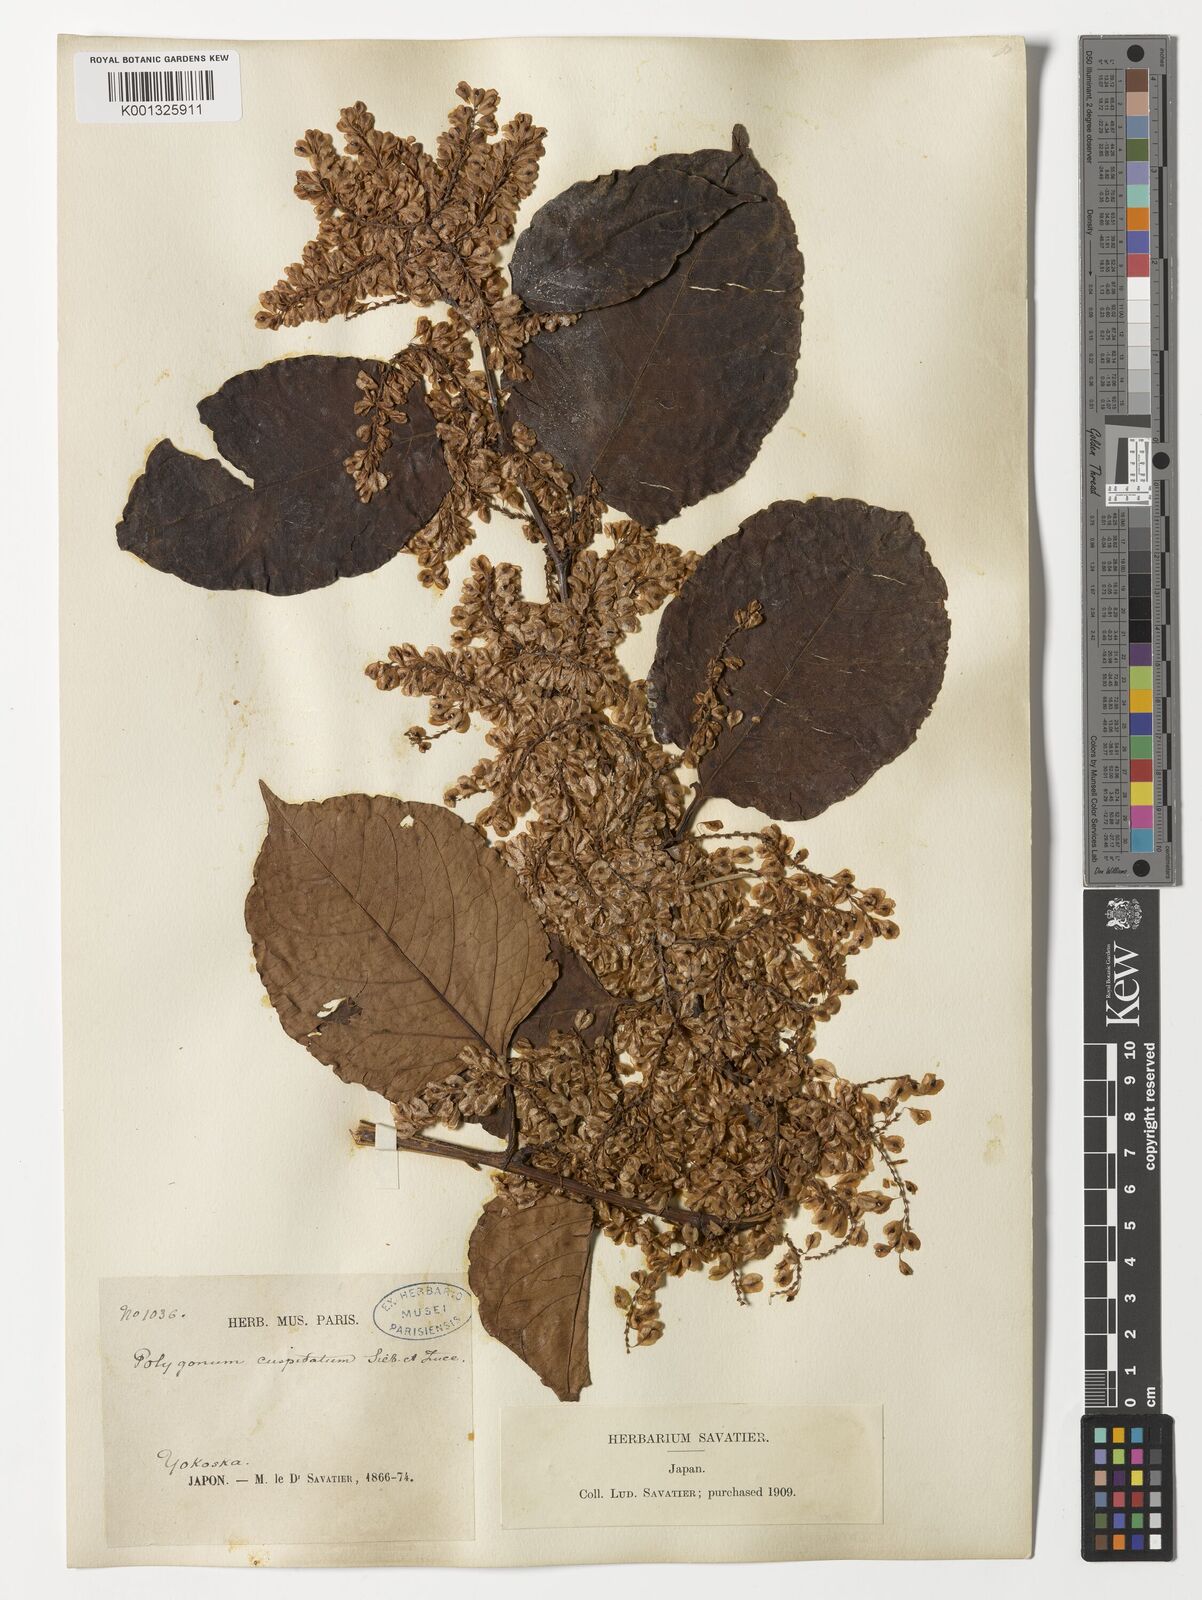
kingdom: Plantae
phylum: Tracheophyta
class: Magnoliopsida
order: Caryophyllales
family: Polygonaceae
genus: Reynoutria
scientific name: Reynoutria japonica
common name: Japanese knotweed
